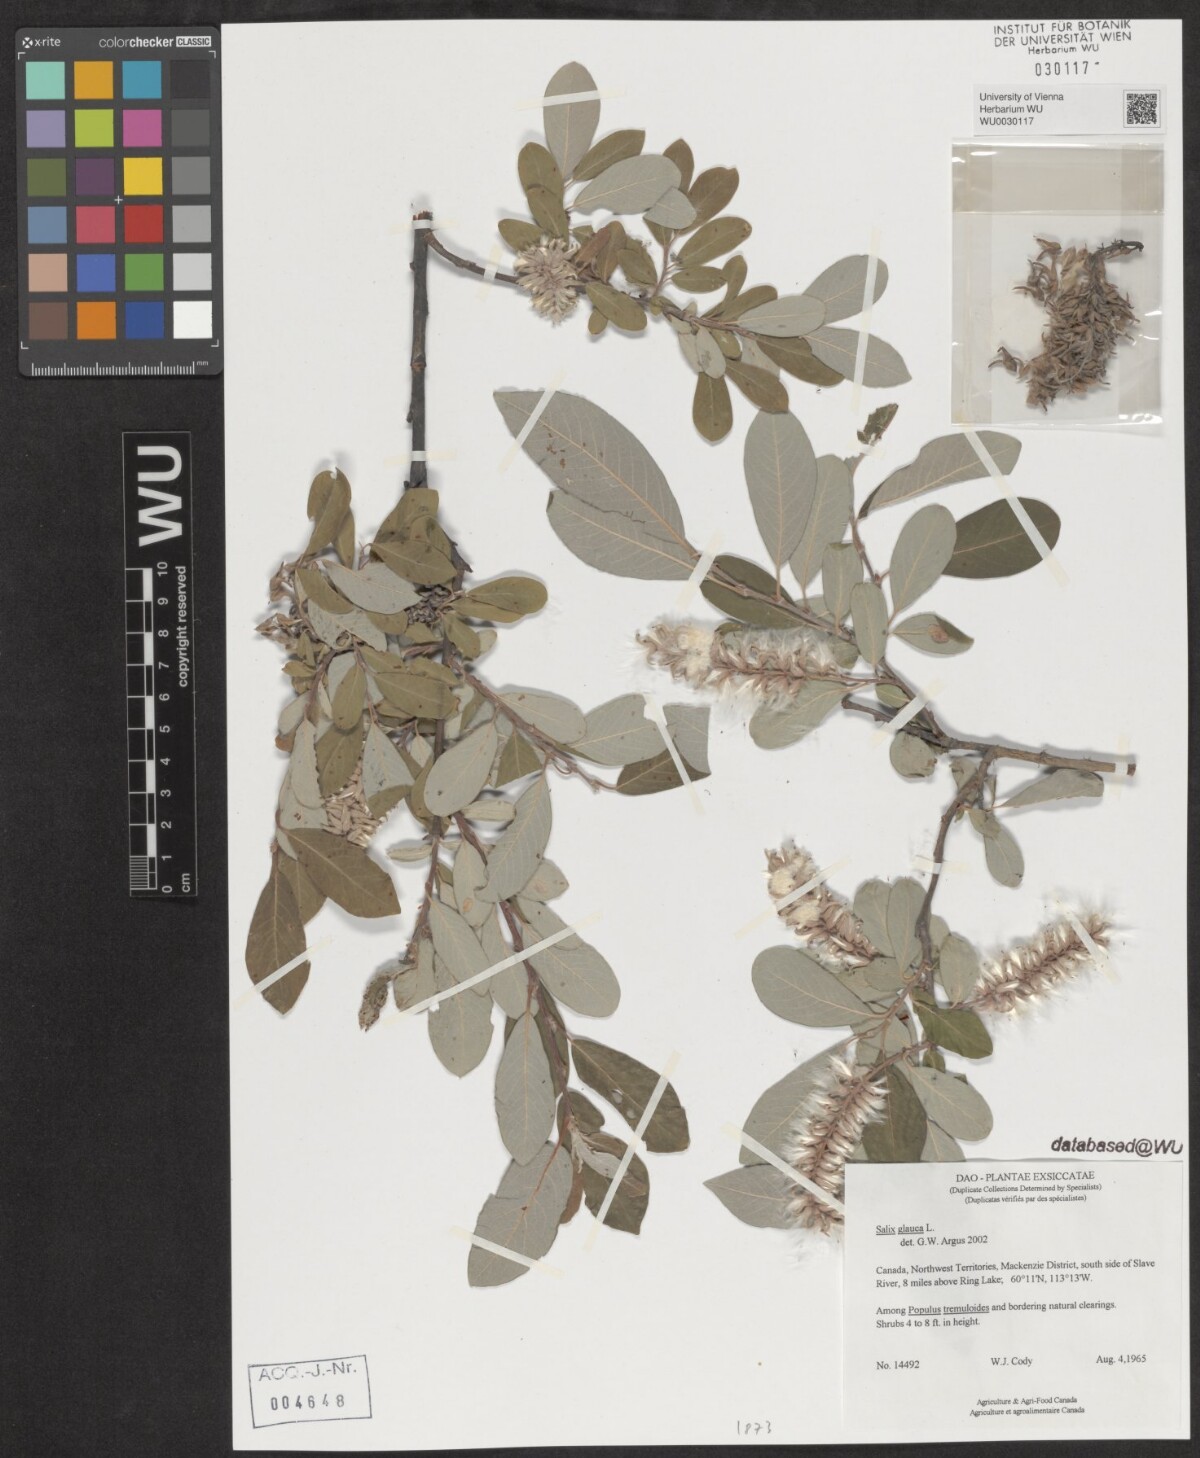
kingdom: Plantae
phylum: Tracheophyta
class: Magnoliopsida
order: Malpighiales
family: Salicaceae
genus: Salix
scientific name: Salix glauca
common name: Glaucous willow
